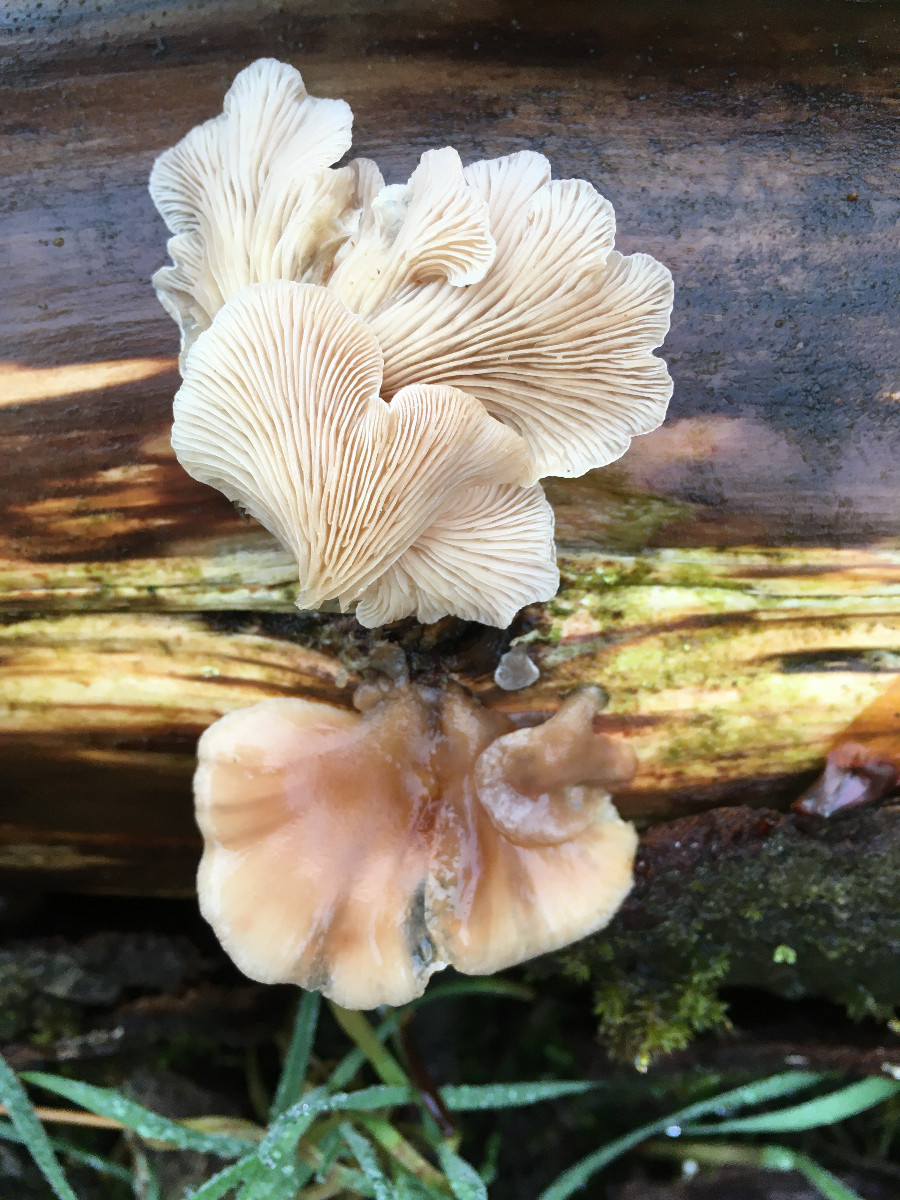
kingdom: Fungi
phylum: Basidiomycota
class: Agaricomycetes
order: Agaricales
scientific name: Agaricales
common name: champignonordenen
